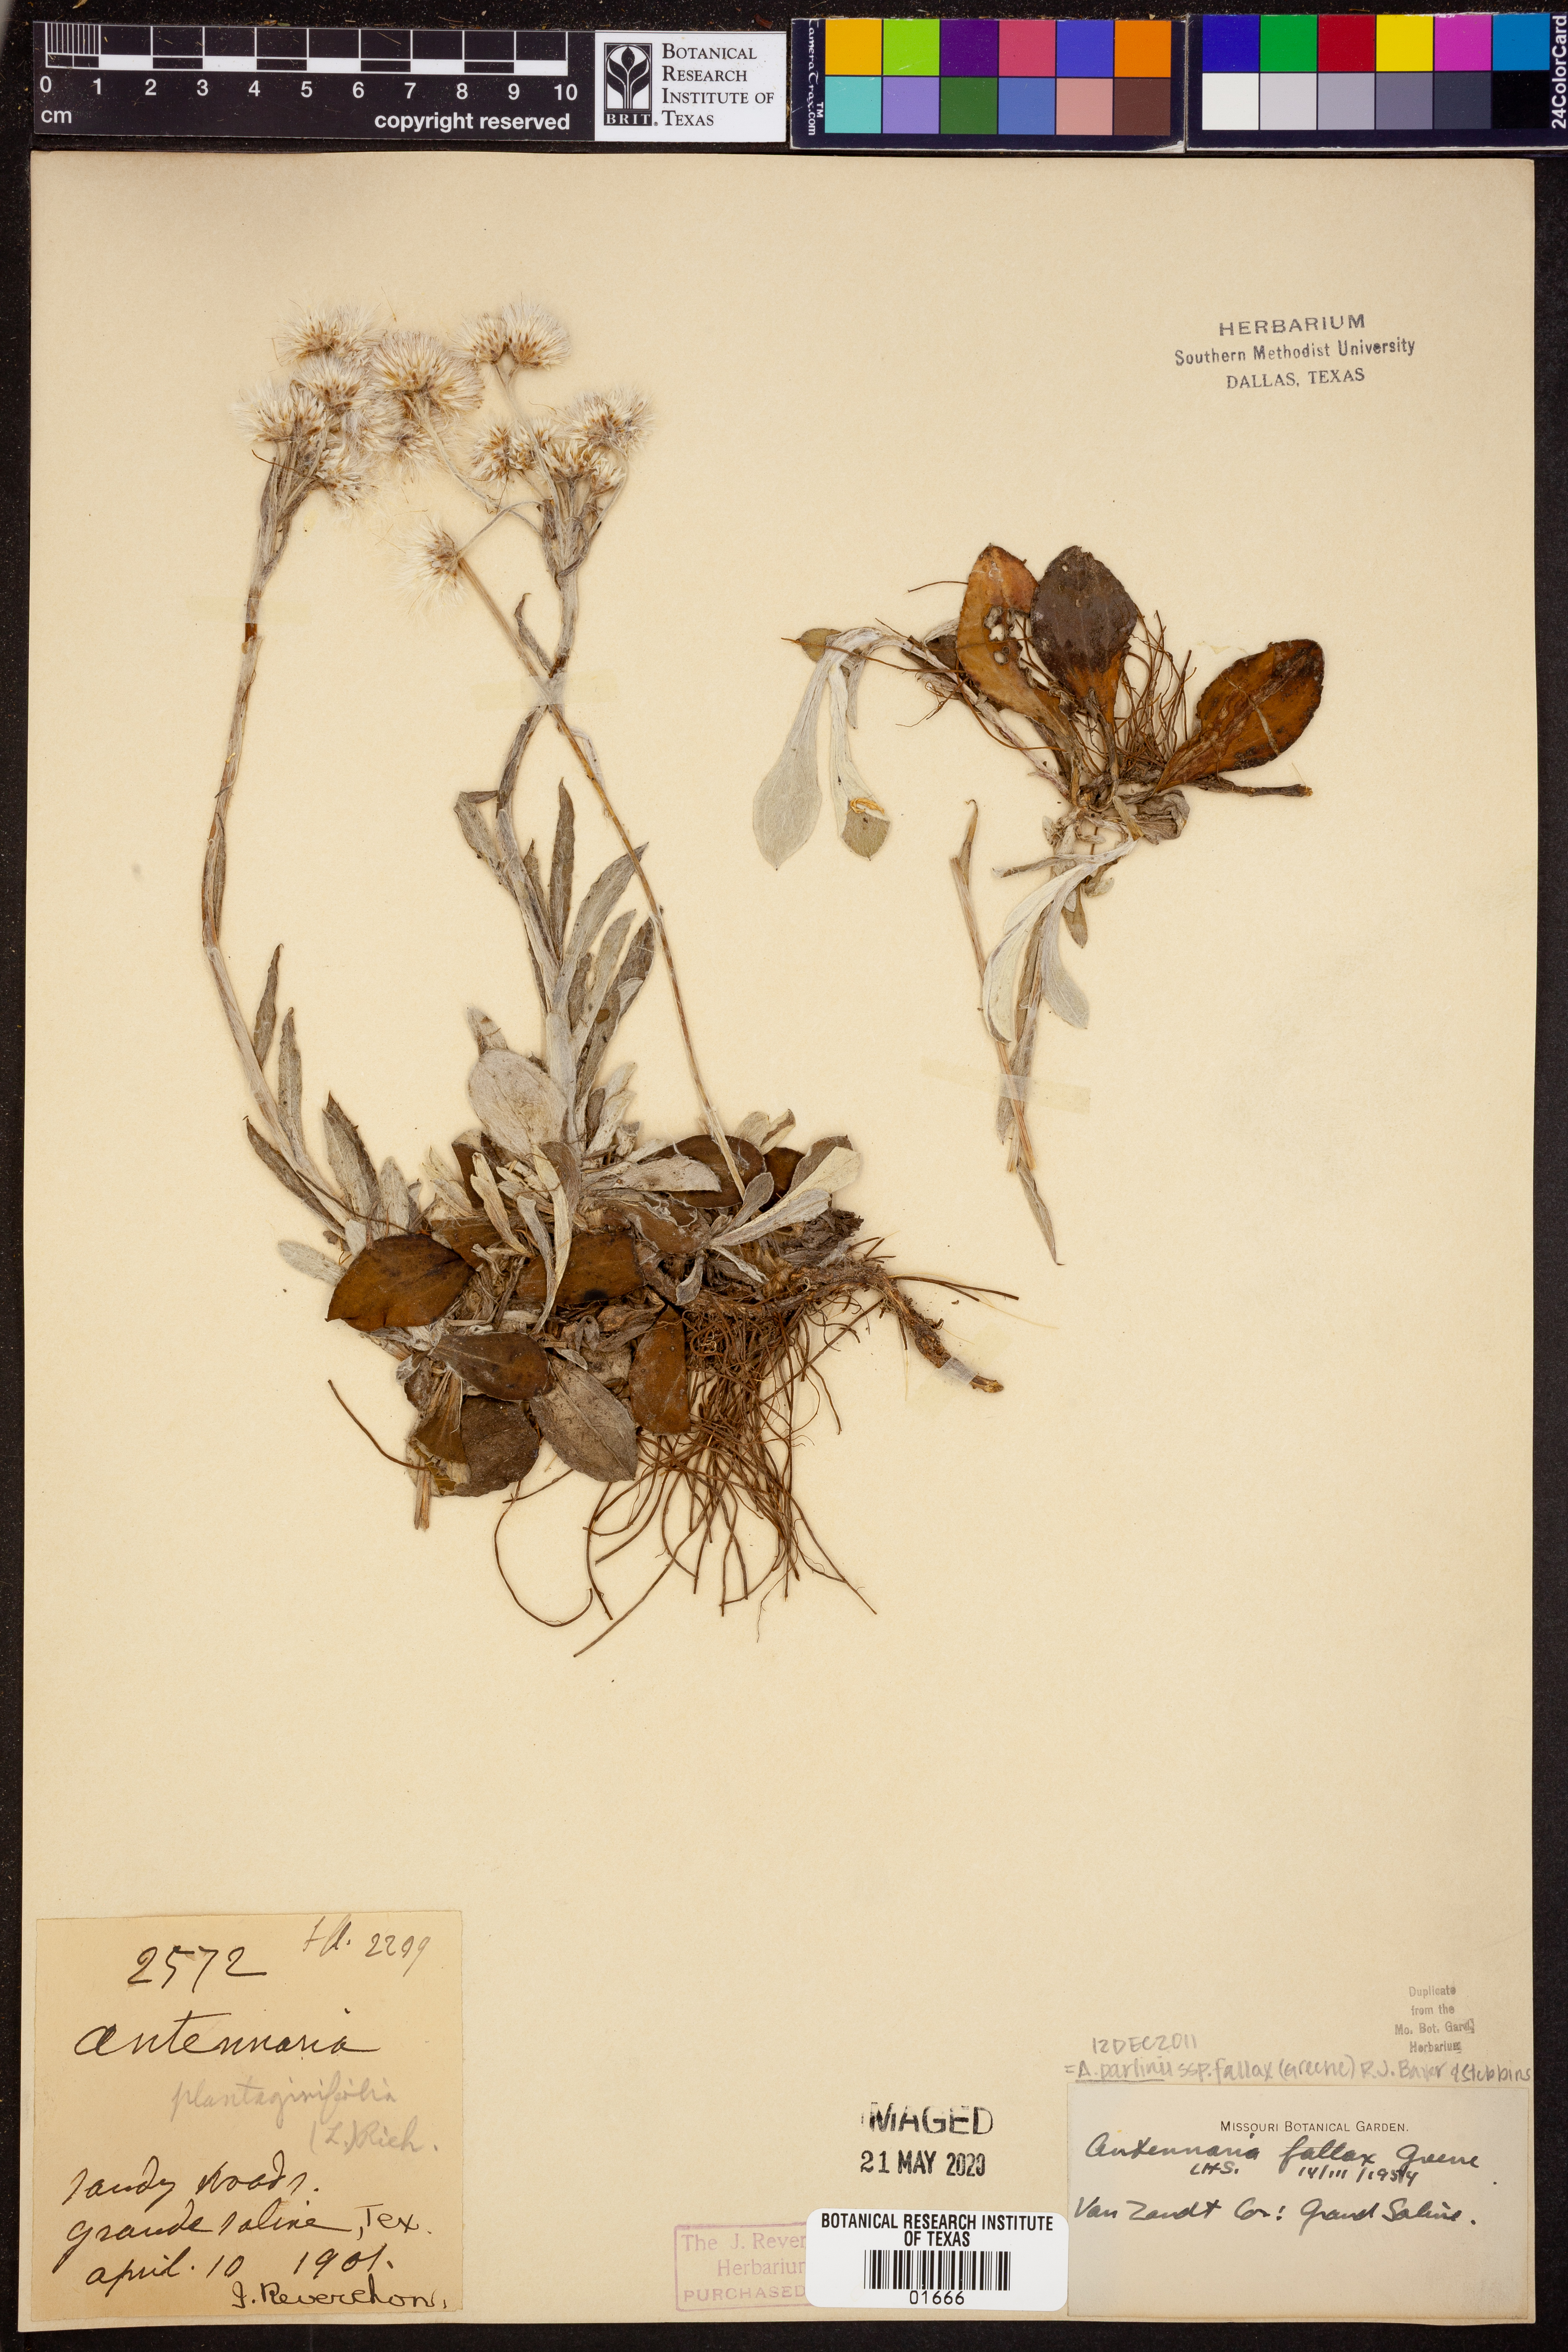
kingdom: Plantae
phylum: Tracheophyta
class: Magnoliopsida
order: Asterales
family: Asteraceae
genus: Antennaria
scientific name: Antennaria parlinii
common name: Parlin's pussytoes
